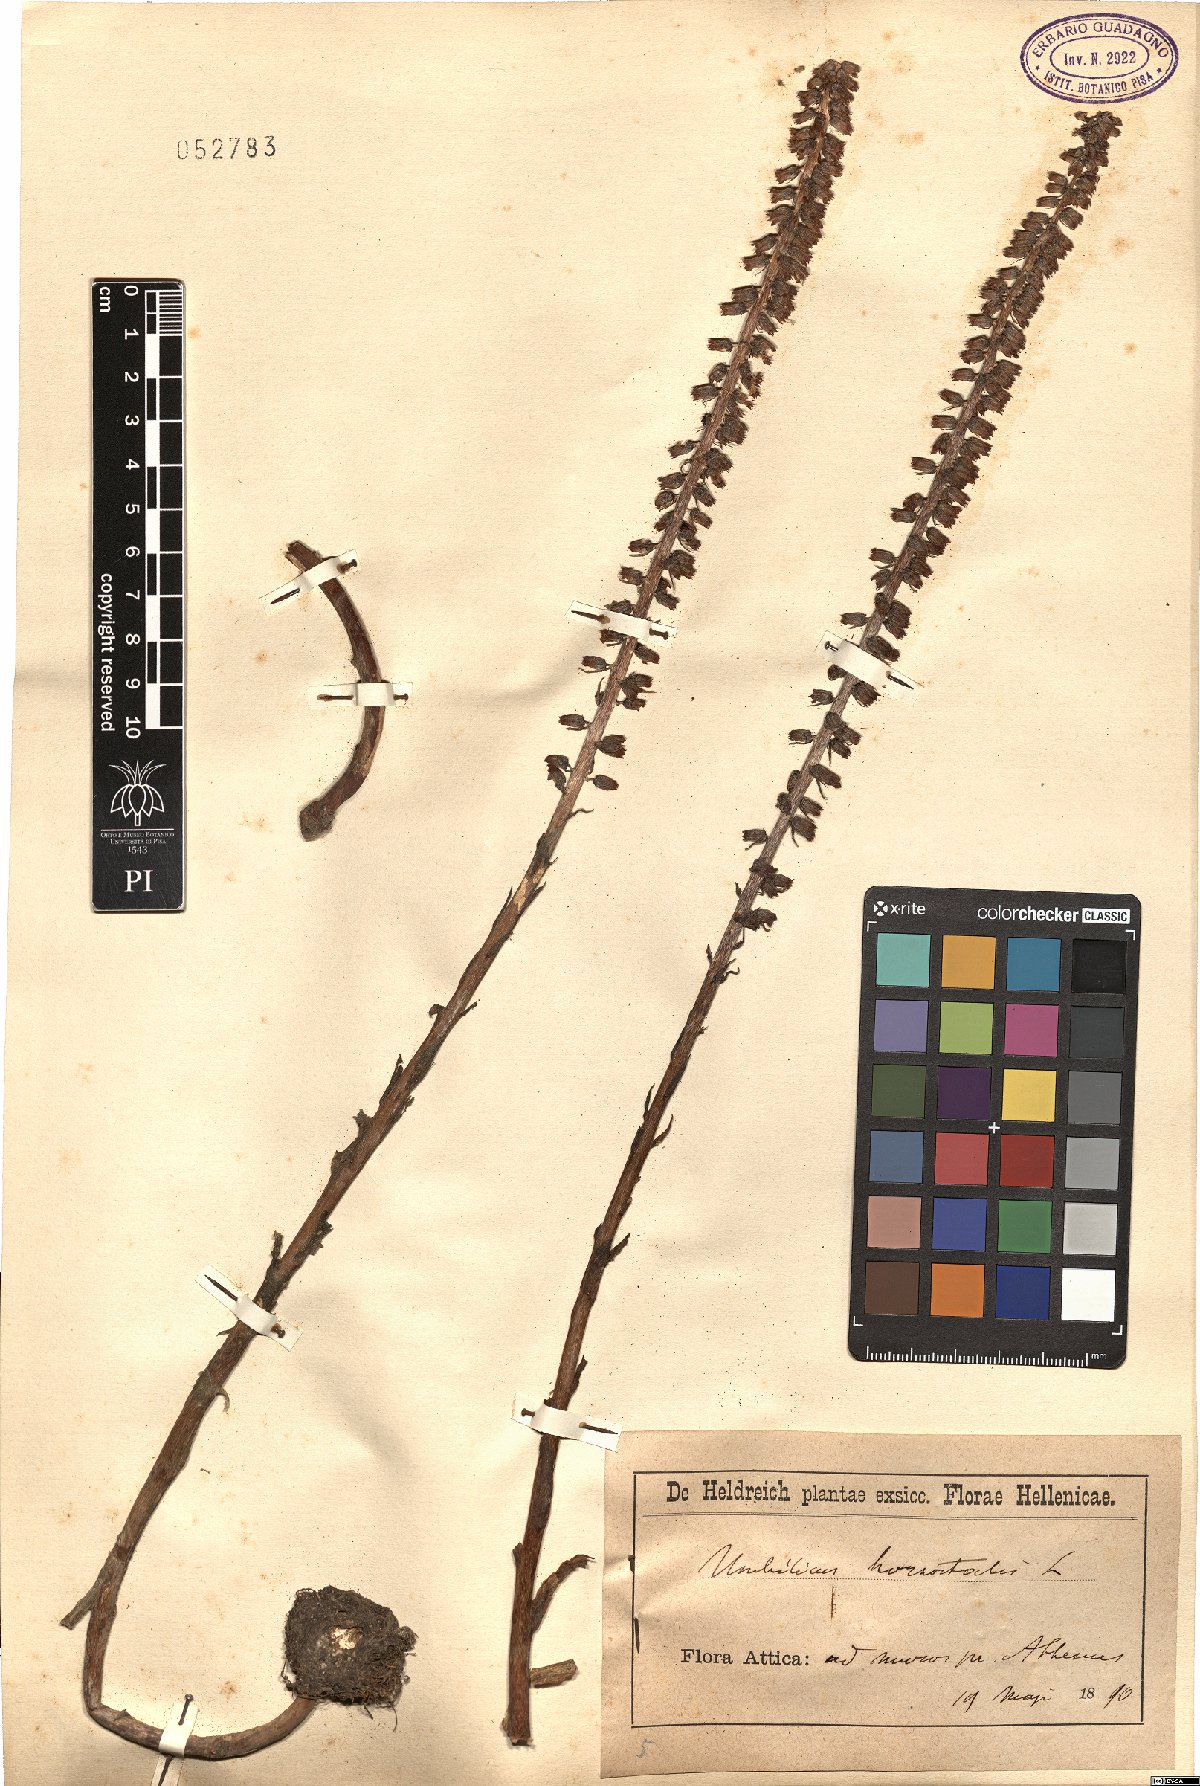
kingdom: Plantae
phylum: Tracheophyta
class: Magnoliopsida
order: Saxifragales
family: Crassulaceae
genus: Umbilicus
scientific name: Umbilicus horizontalis
